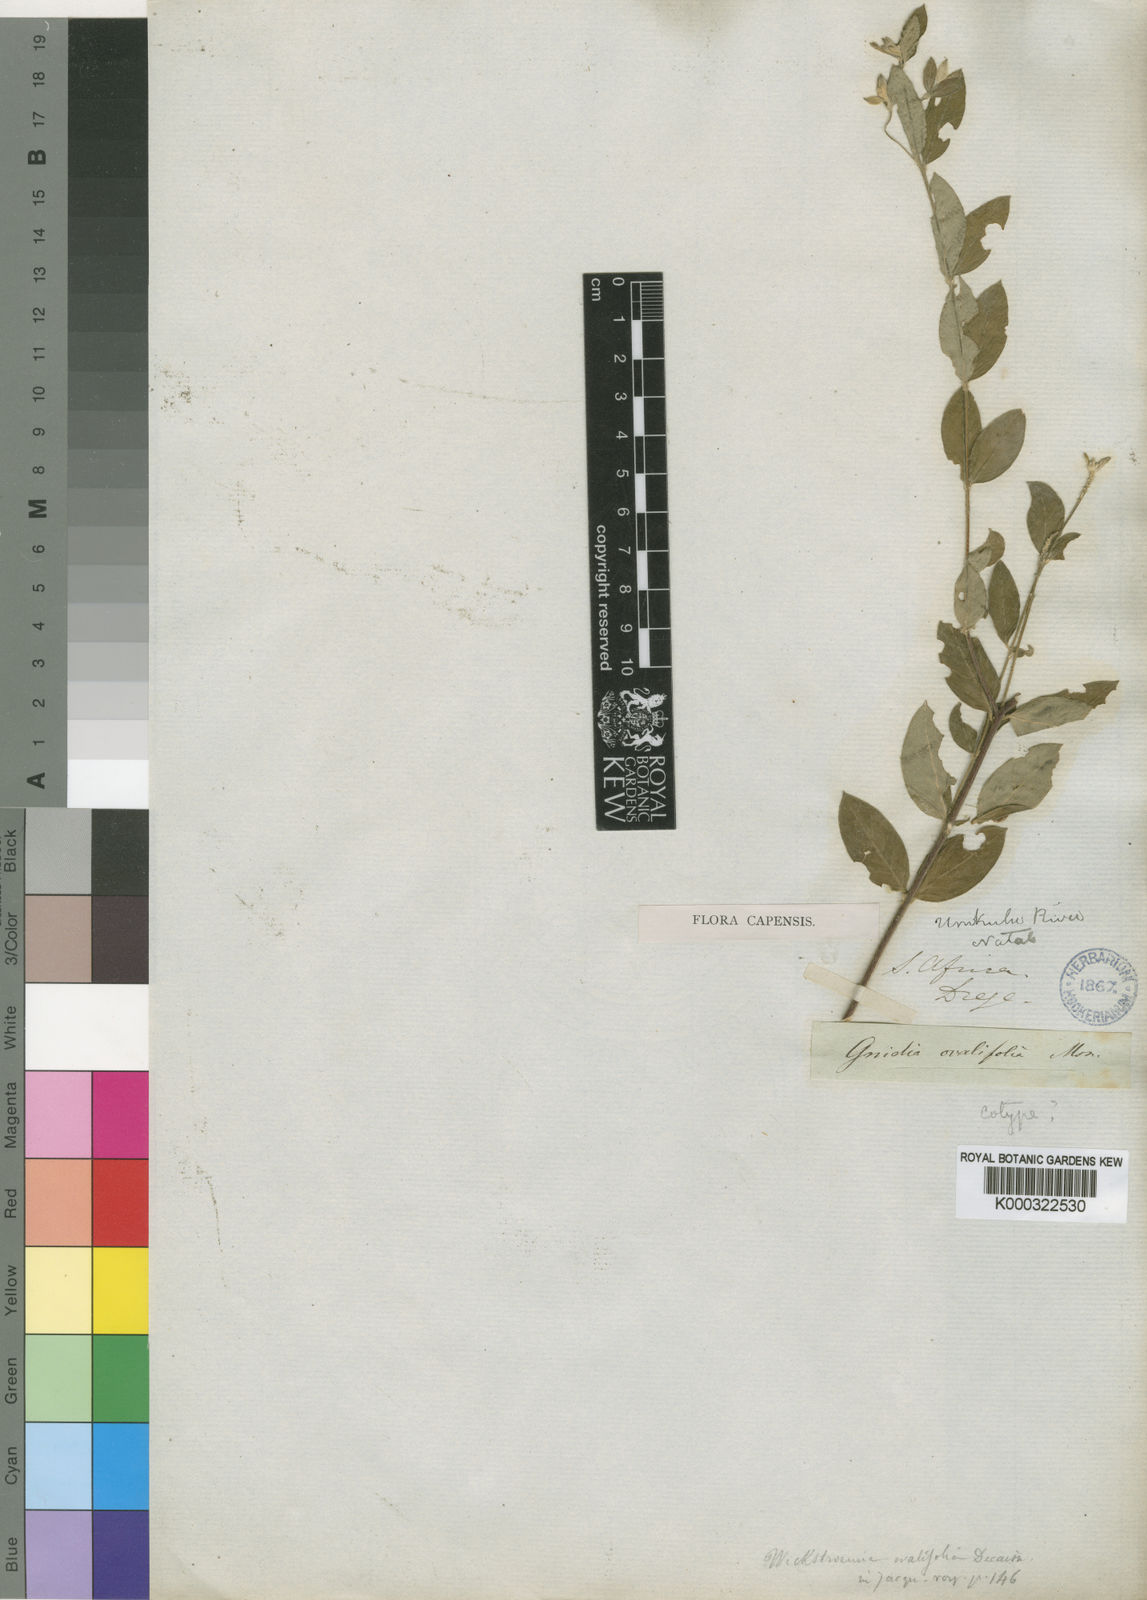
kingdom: Plantae
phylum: Tracheophyta
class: Magnoliopsida
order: Malvales
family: Thymelaeaceae
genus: Gnidia
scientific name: Gnidia
